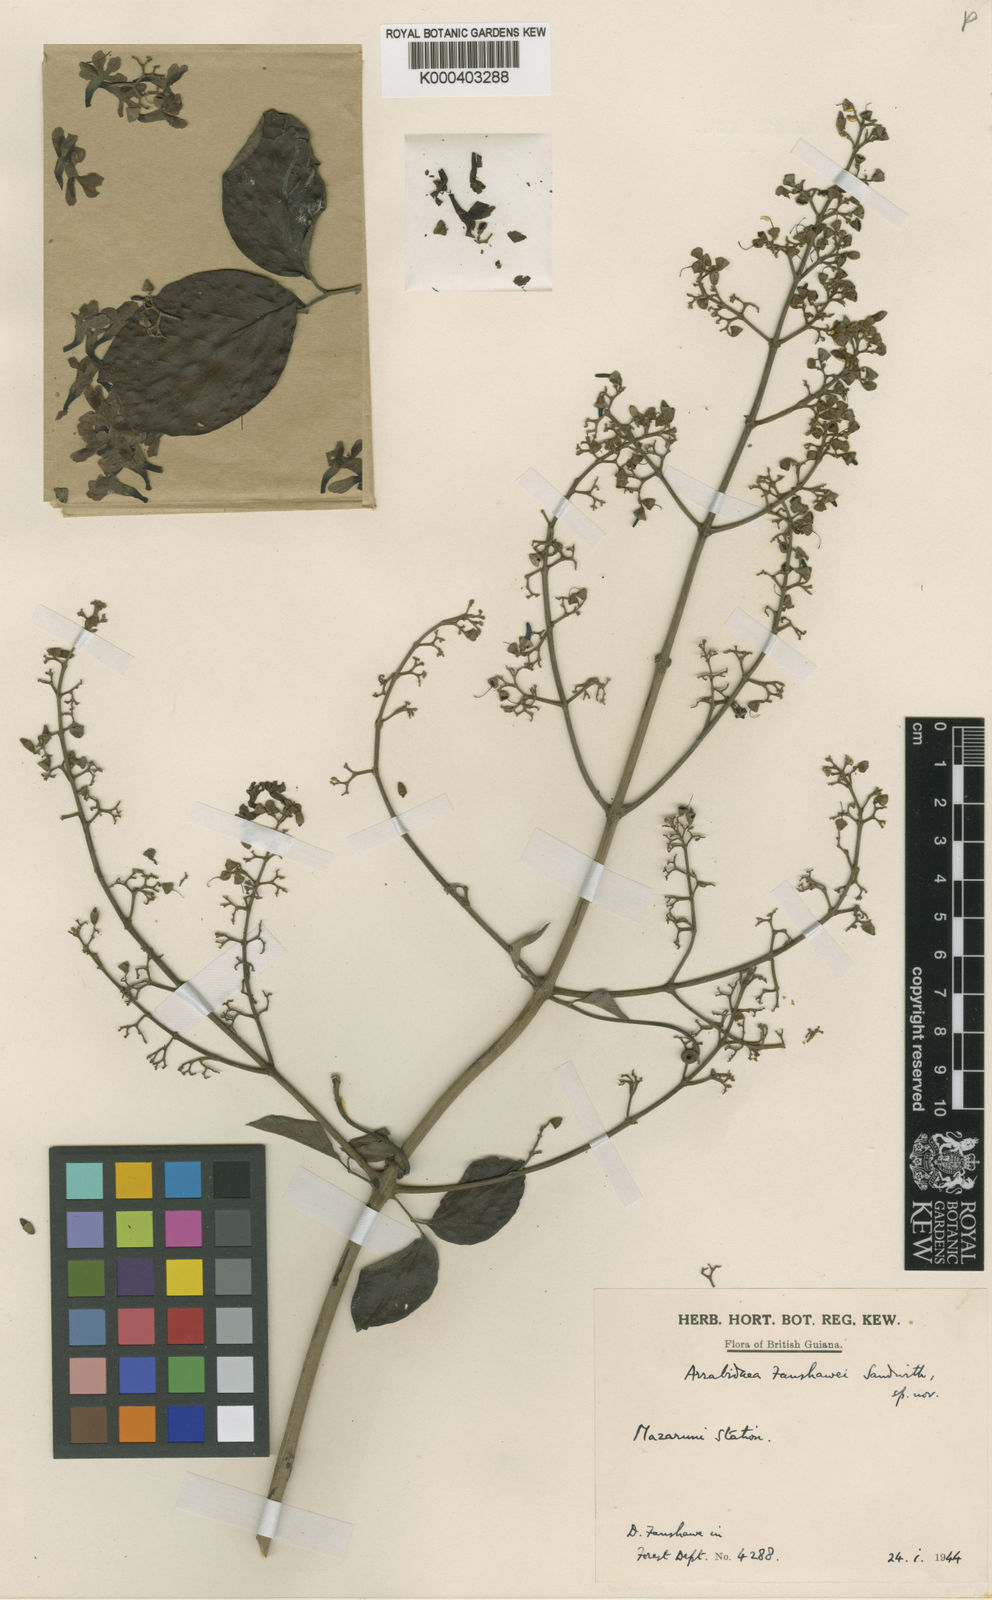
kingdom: Plantae
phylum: Tracheophyta
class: Magnoliopsida
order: Lamiales
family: Bignoniaceae
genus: Fridericia
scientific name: Fridericia fanshawei
